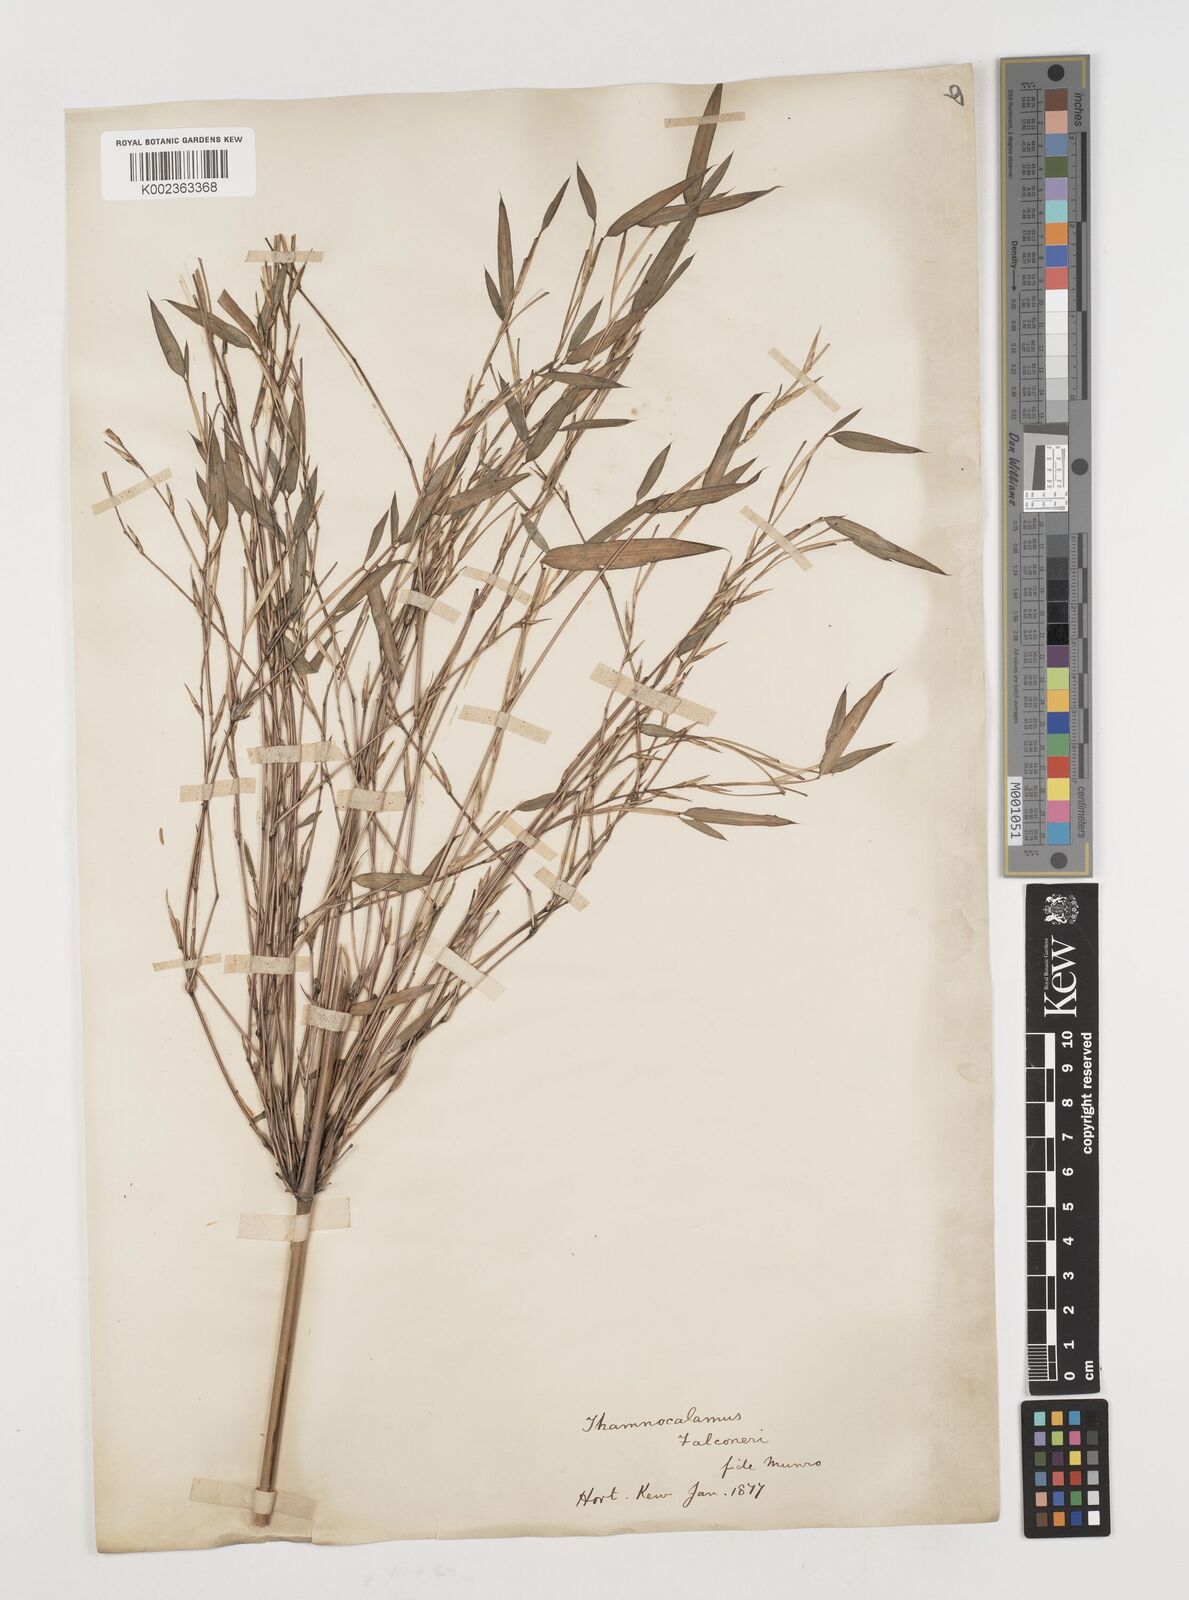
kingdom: Plantae
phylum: Tracheophyta
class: Liliopsida
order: Poales
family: Poaceae
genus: Himalayacalamus
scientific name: Himalayacalamus falconeri
